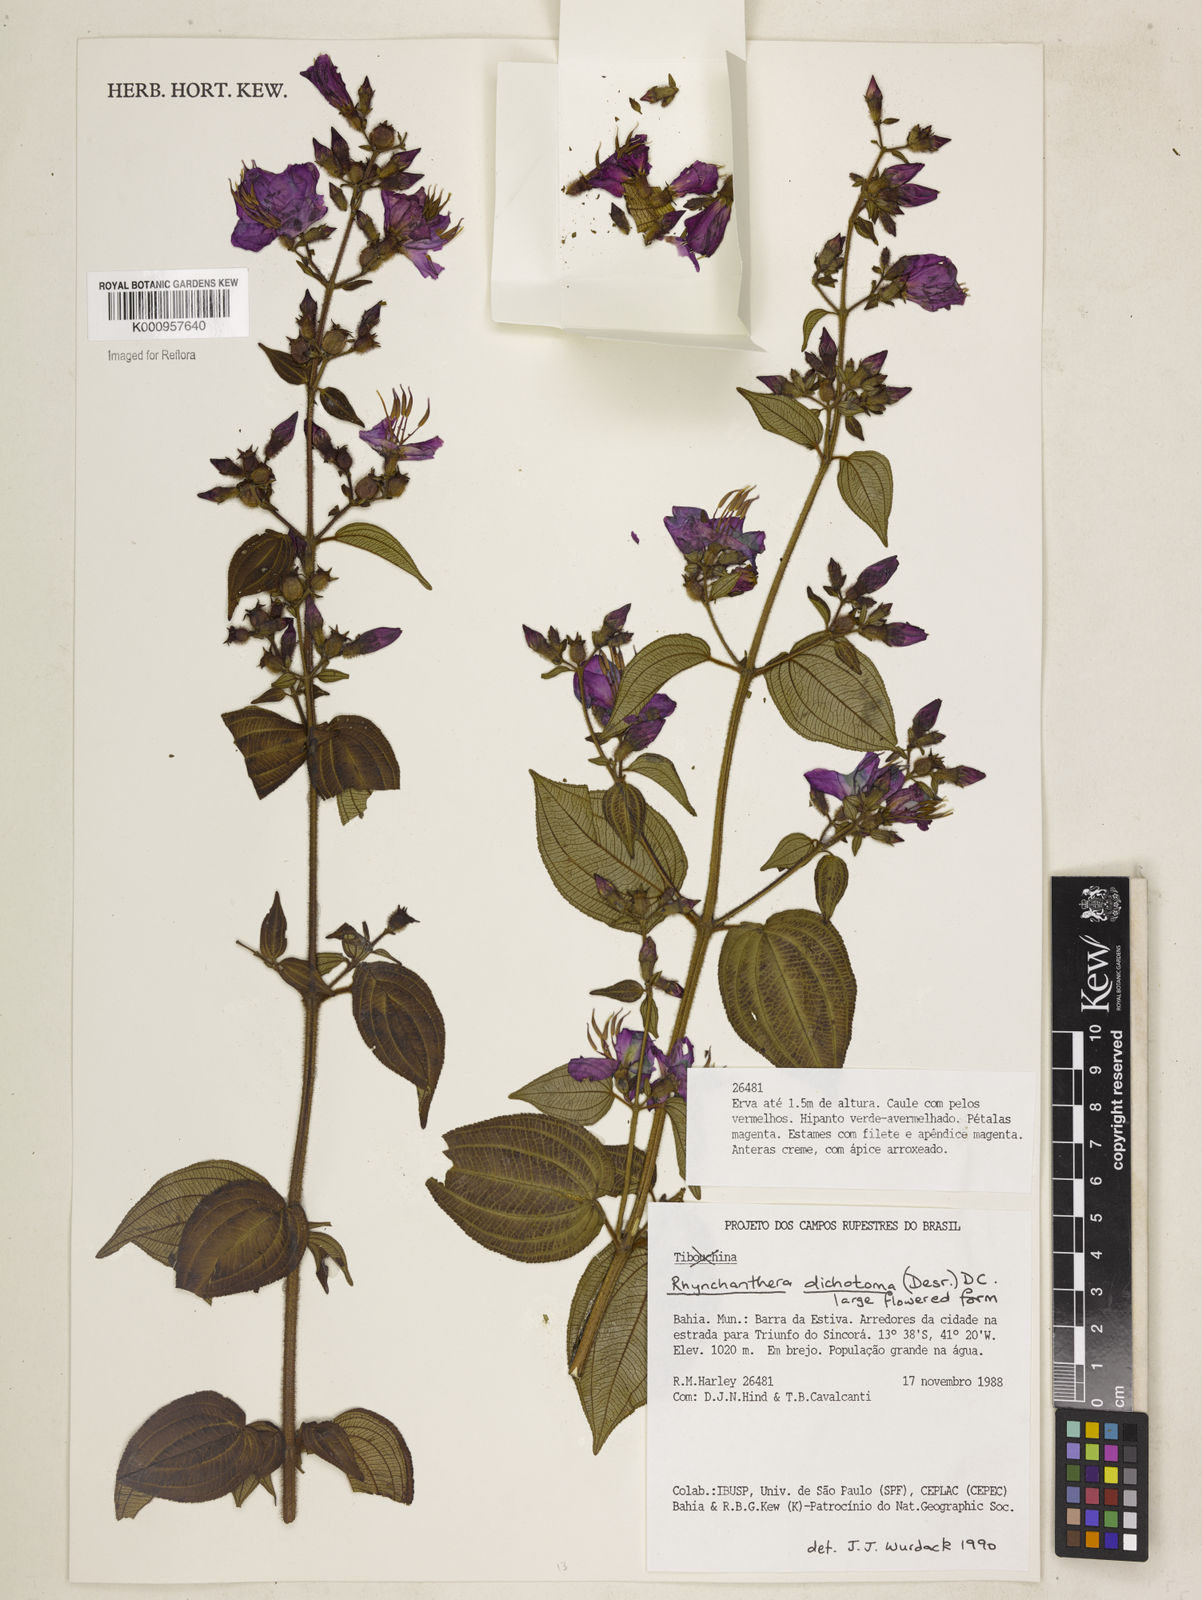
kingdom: Plantae
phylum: Tracheophyta
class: Magnoliopsida
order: Myrtales
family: Melastomataceae
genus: Rhynchanthera
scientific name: Rhynchanthera dichotoma
